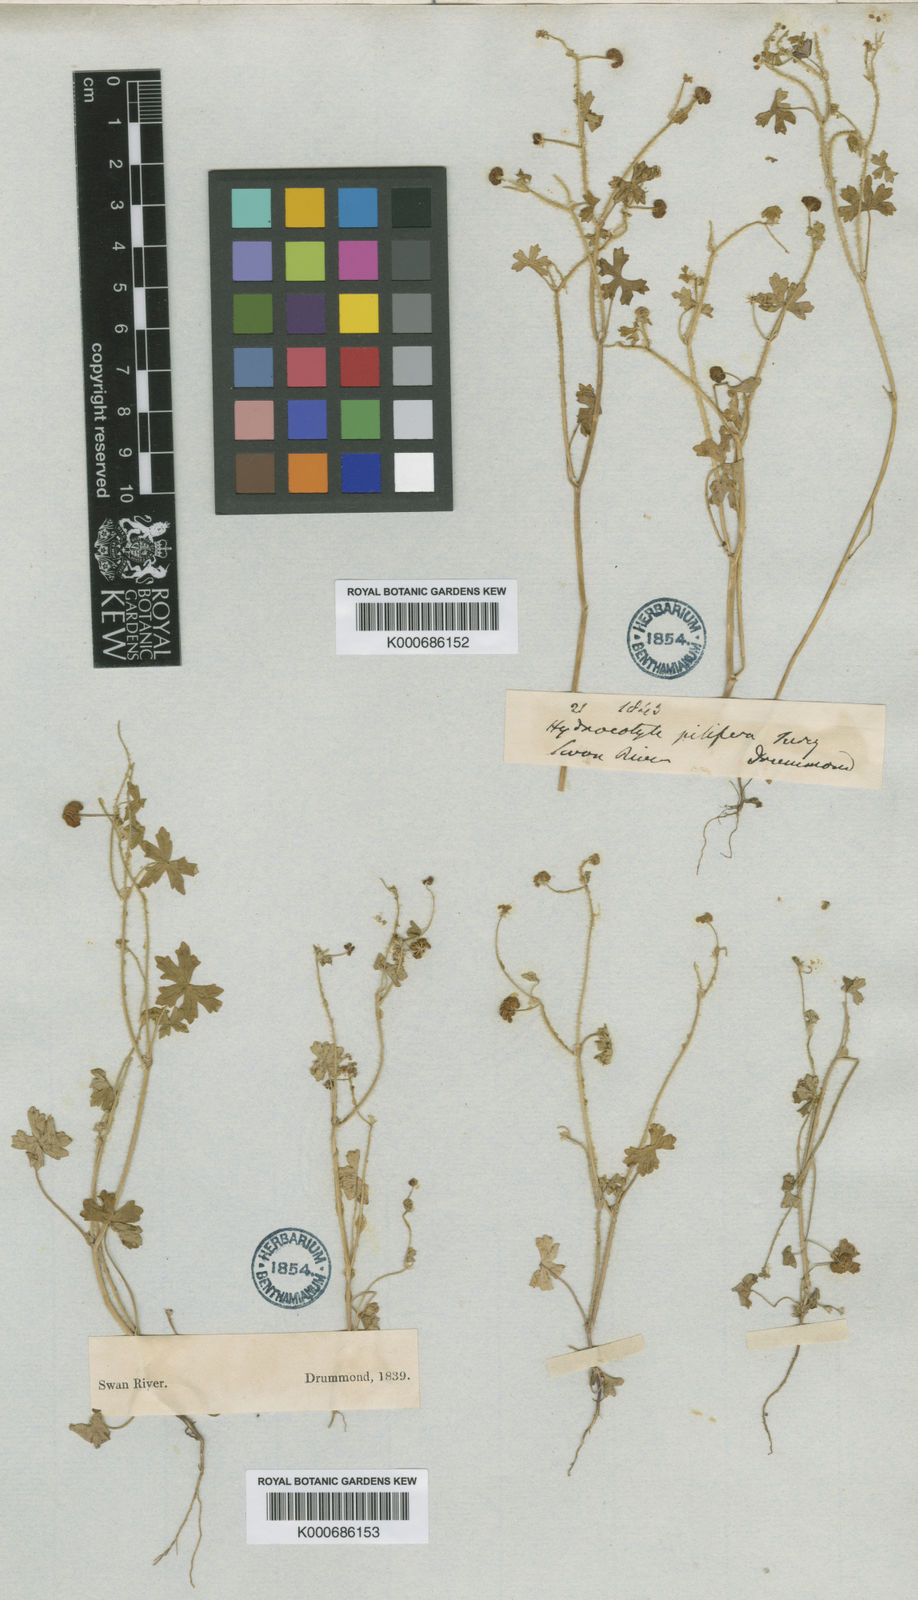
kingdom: Plantae
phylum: Tracheophyta
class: Magnoliopsida
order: Apiales
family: Araliaceae
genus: Hydrocotyle
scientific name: Hydrocotyle pilifera
